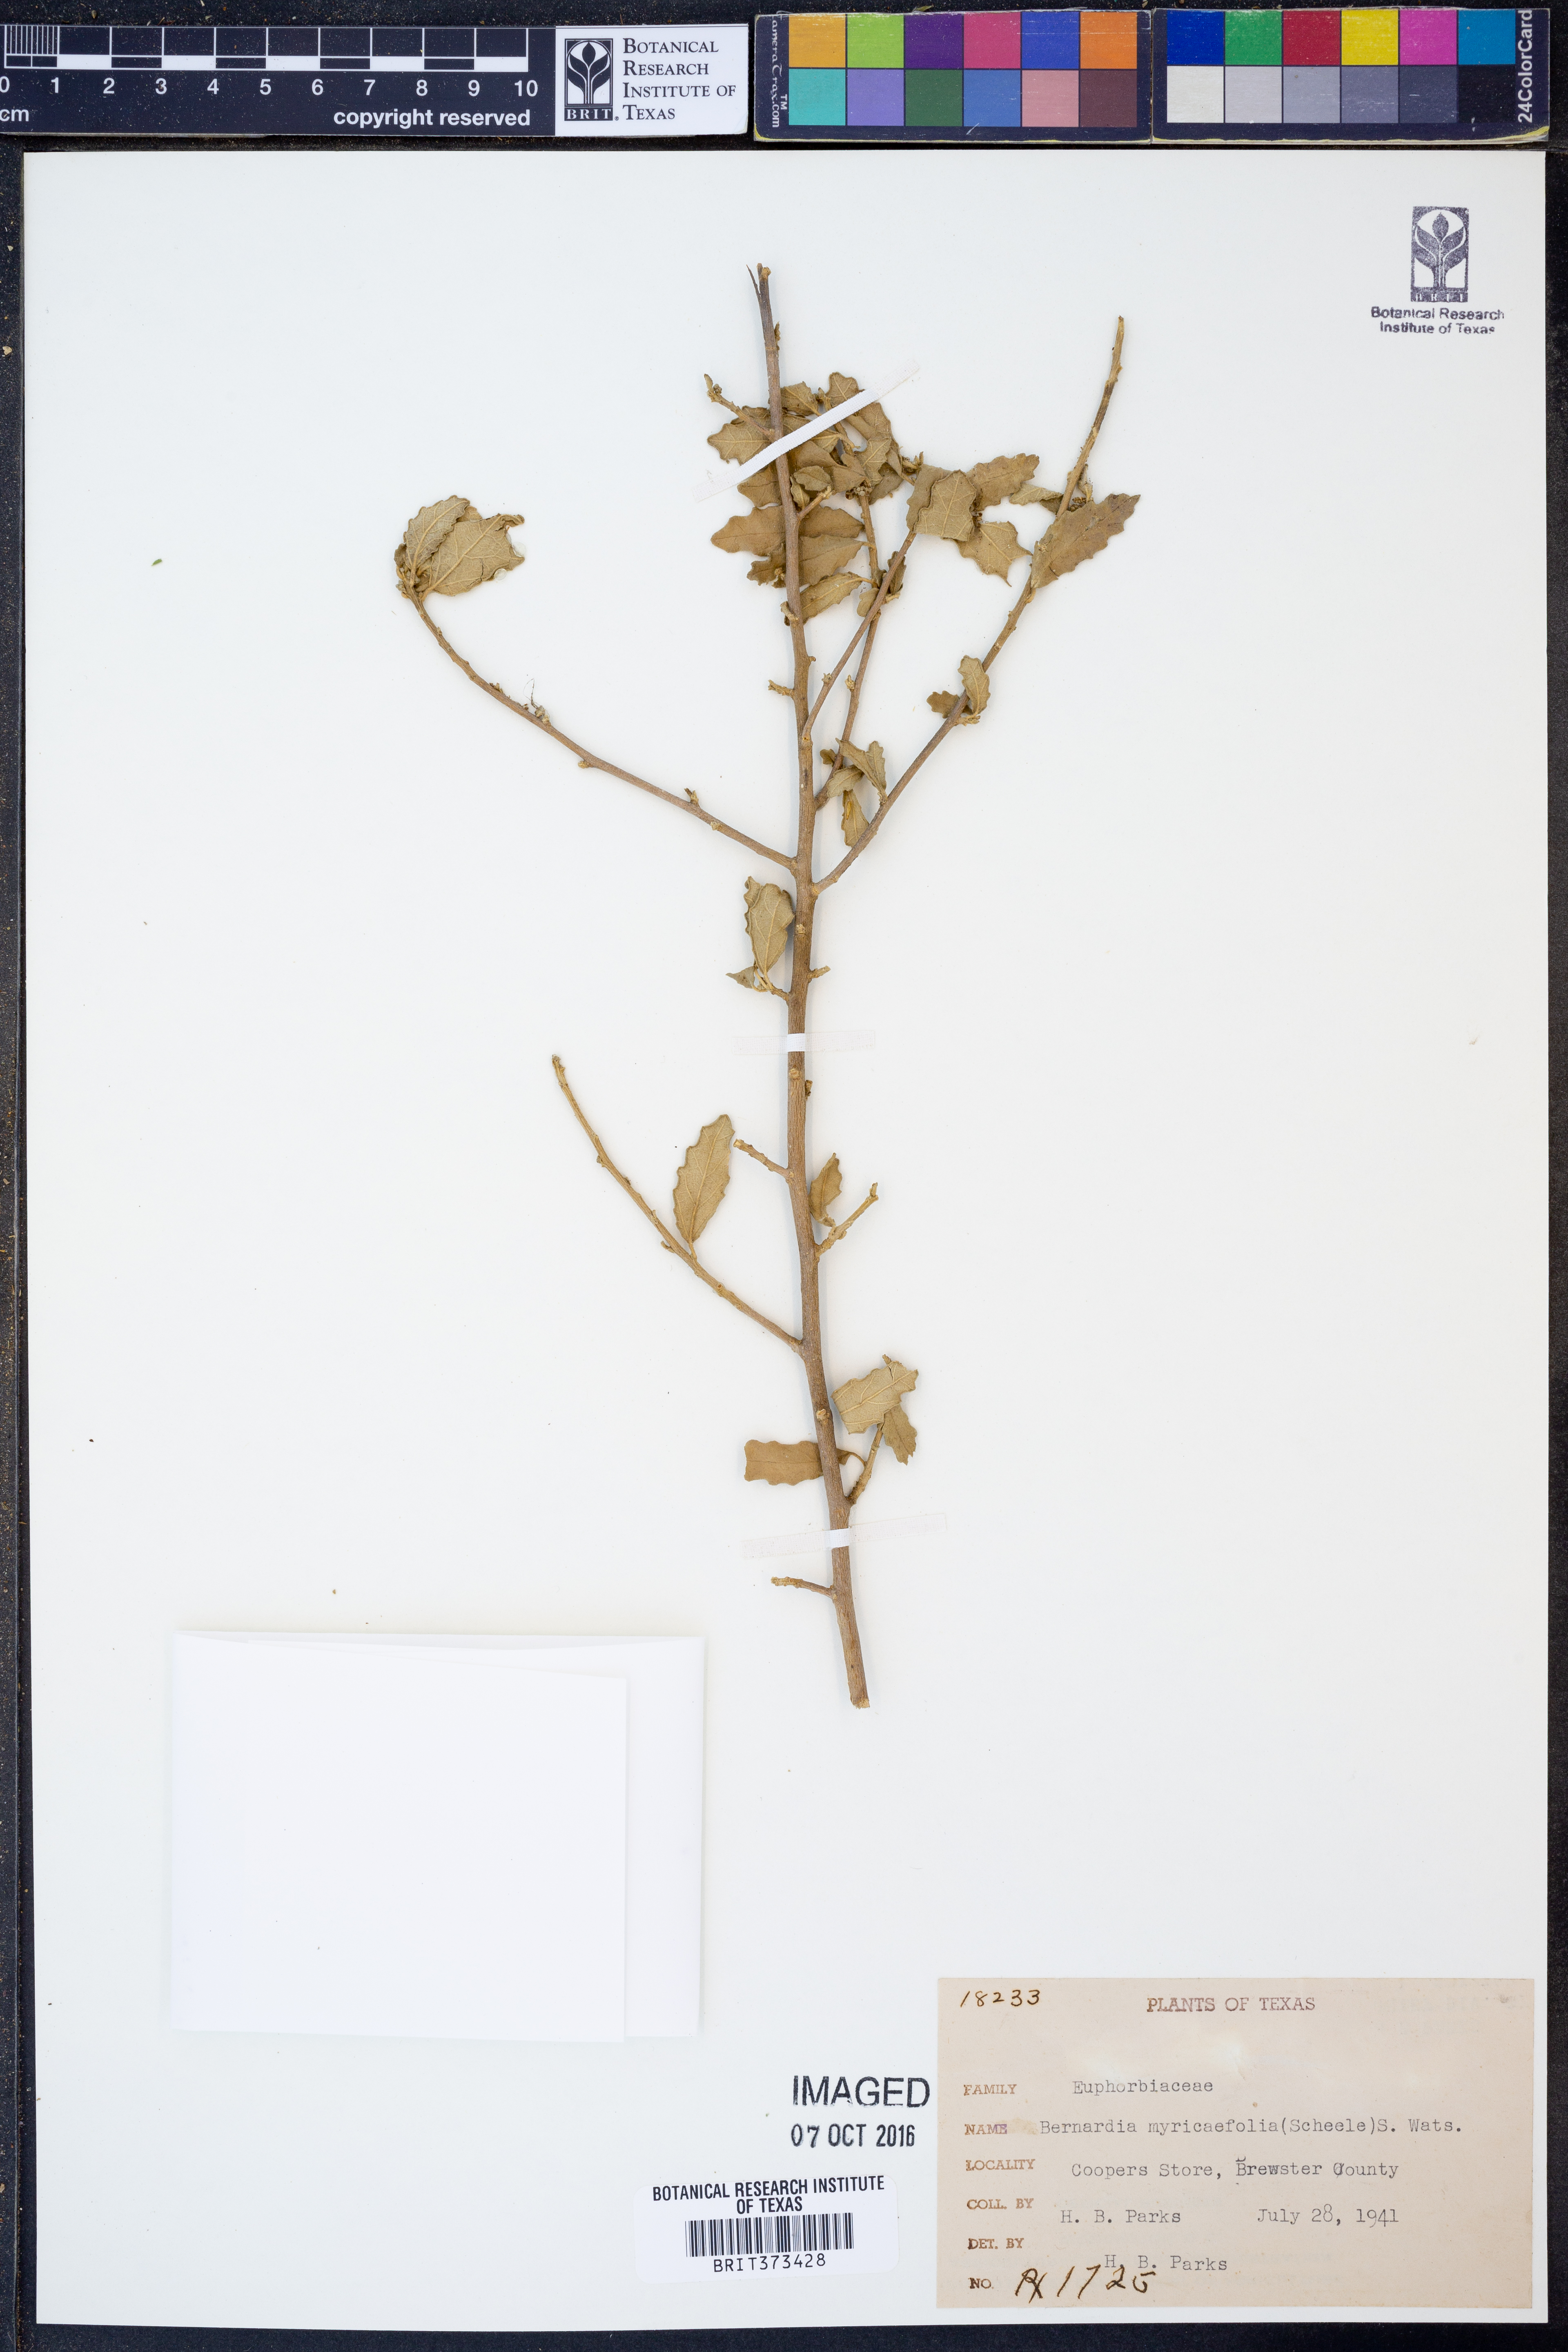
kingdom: Plantae
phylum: Tracheophyta
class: Magnoliopsida
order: Malpighiales
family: Euphorbiaceae
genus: Bernardia
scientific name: Bernardia myricifolia
